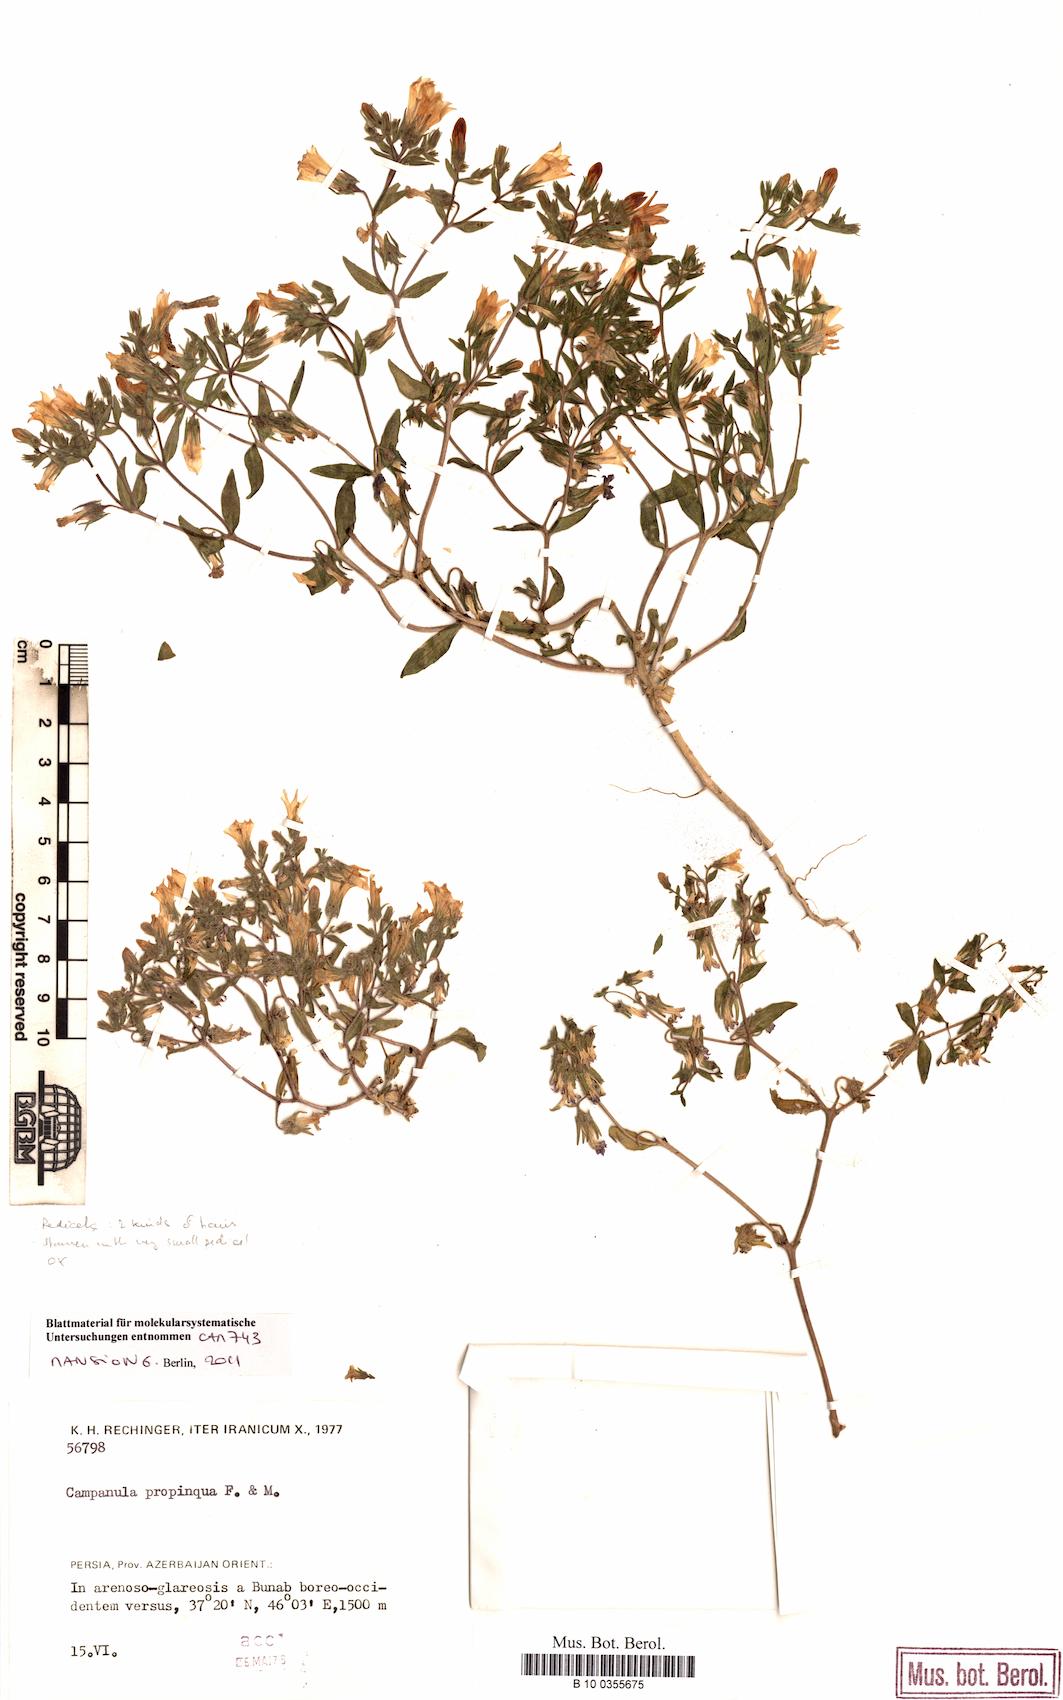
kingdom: Plantae
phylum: Tracheophyta
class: Magnoliopsida
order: Asterales
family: Campanulaceae
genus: Campanula
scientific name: Campanula propinqua
